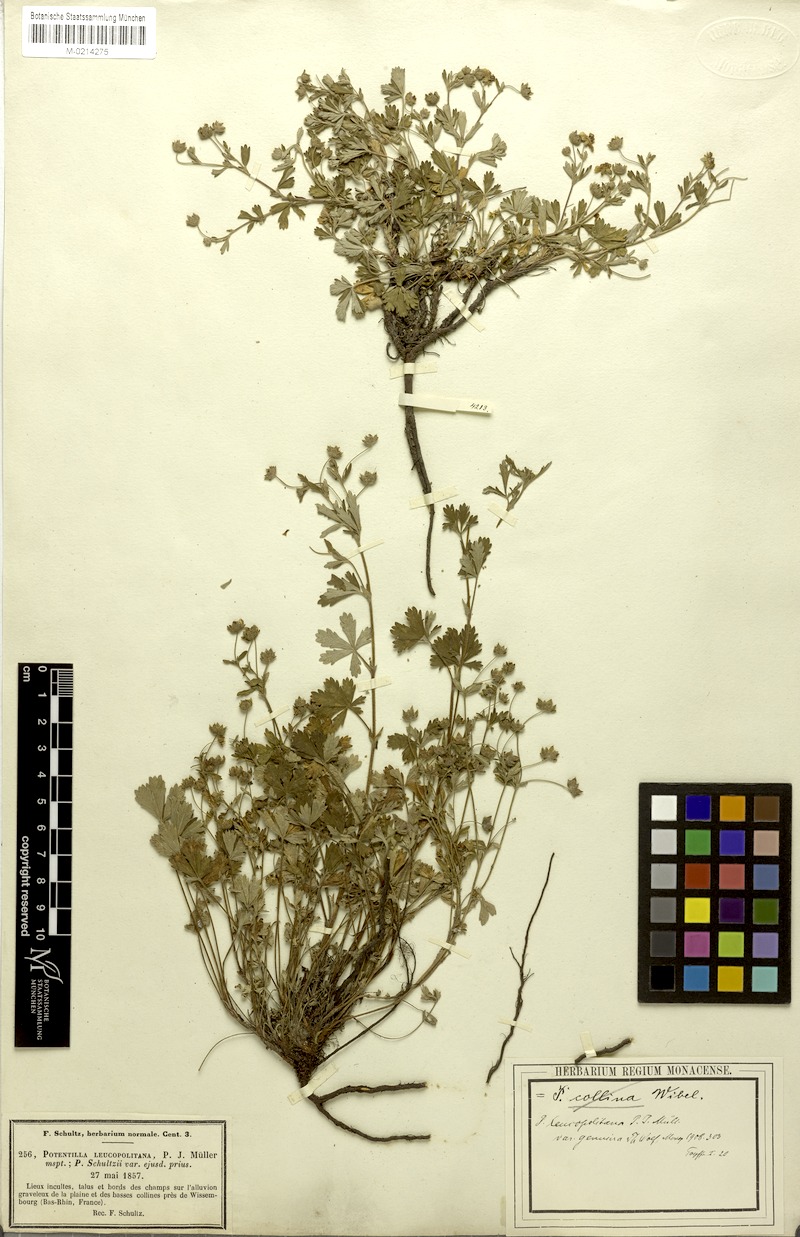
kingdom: Plantae
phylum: Tracheophyta
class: Magnoliopsida
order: Rosales
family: Rosaceae
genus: Potentilla
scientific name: Potentilla collina
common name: Palmleaf cinquefoil
